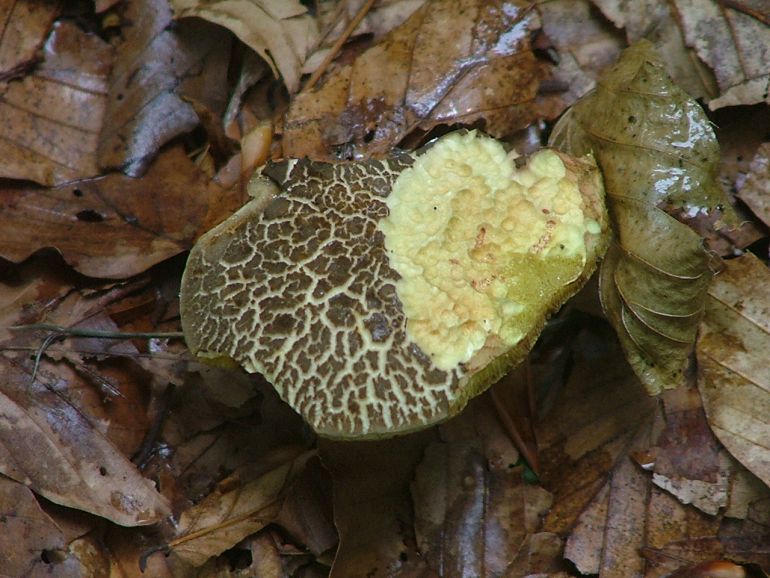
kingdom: Fungi
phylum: Basidiomycota
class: Agaricomycetes
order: Boletales
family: Boletaceae
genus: Xerocomellus
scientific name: Xerocomellus chrysenteron
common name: rødsprukken rørhat
